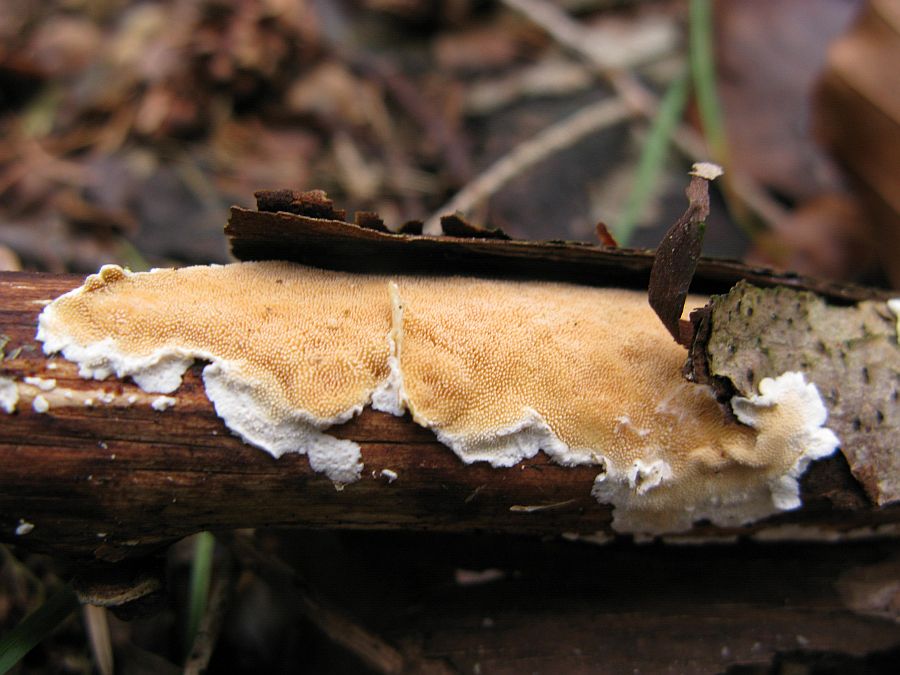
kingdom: Fungi
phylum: Basidiomycota
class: Agaricomycetes
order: Polyporales
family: Steccherinaceae
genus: Steccherinum
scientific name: Steccherinum ochraceum
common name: almindelig skønpig
